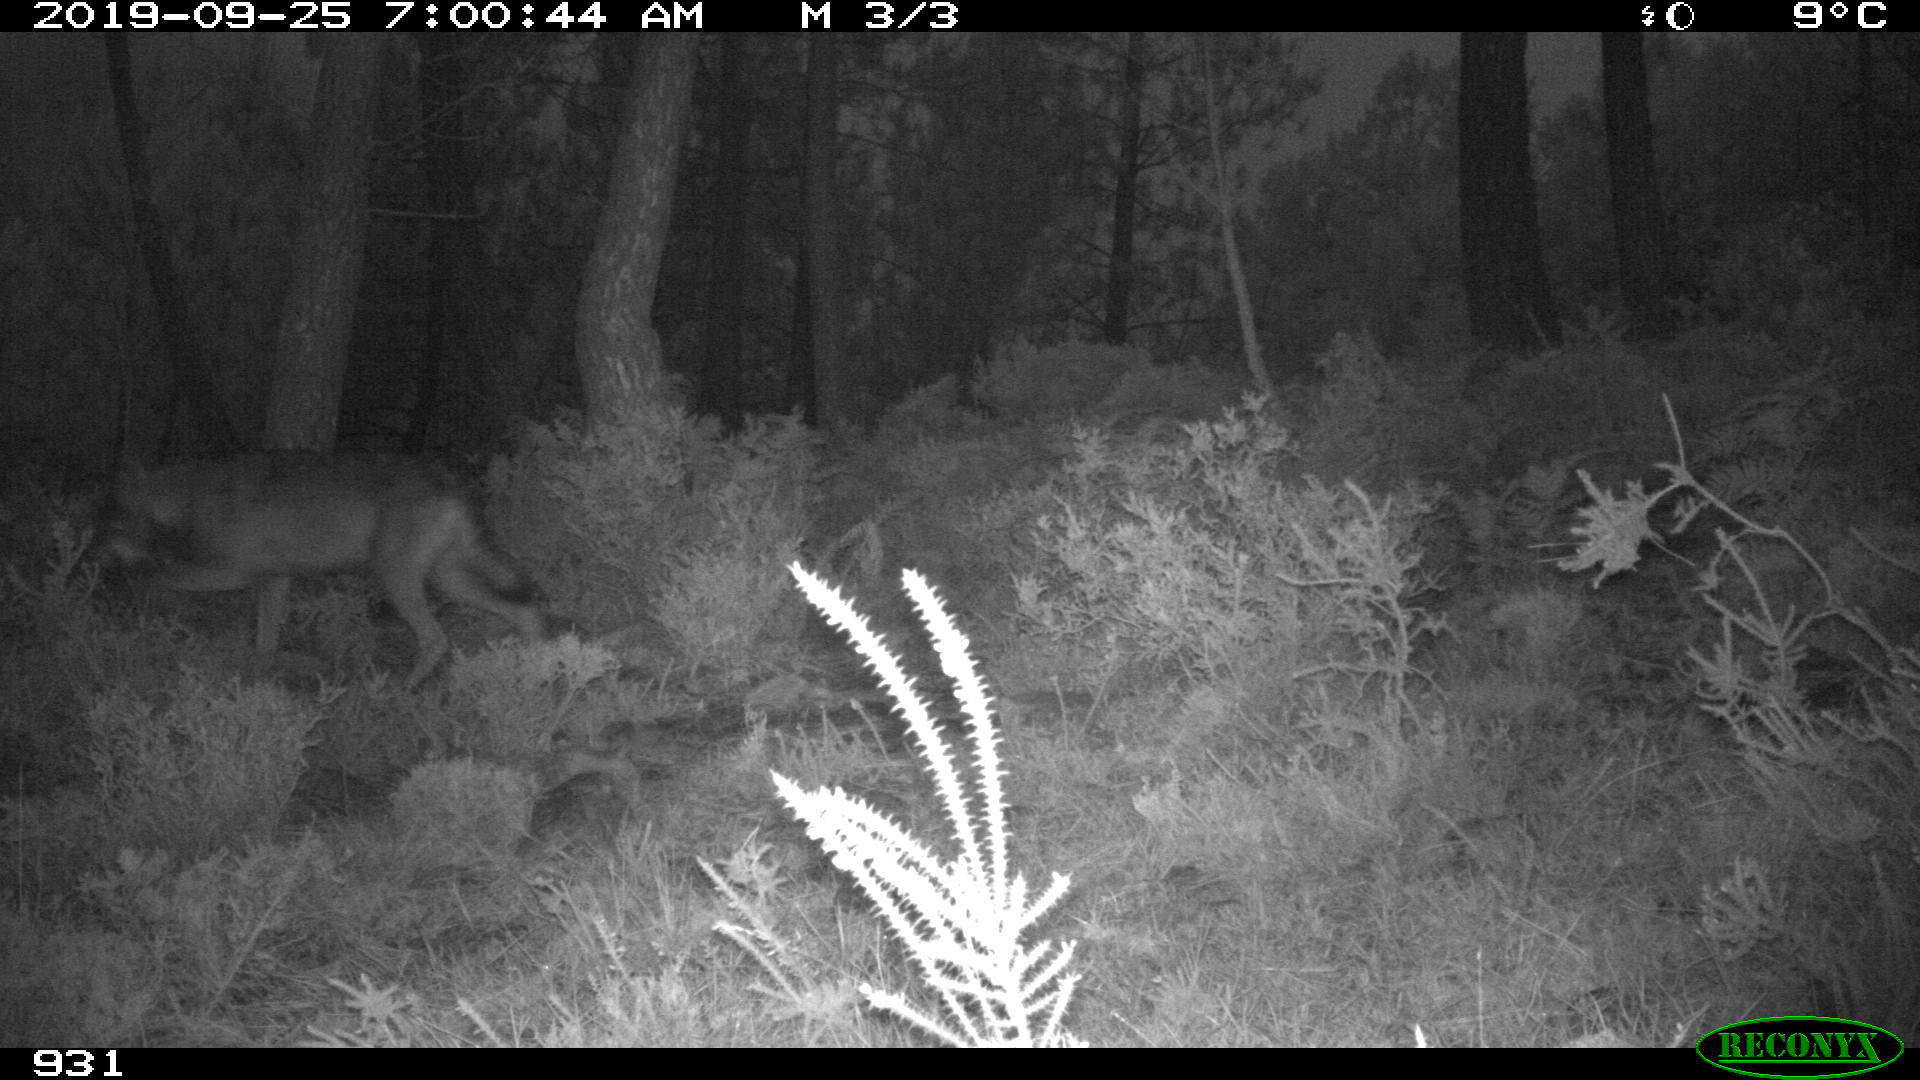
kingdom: Animalia
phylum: Chordata
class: Mammalia
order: Carnivora
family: Canidae
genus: Canis
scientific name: Canis lupus
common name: Gray wolf
